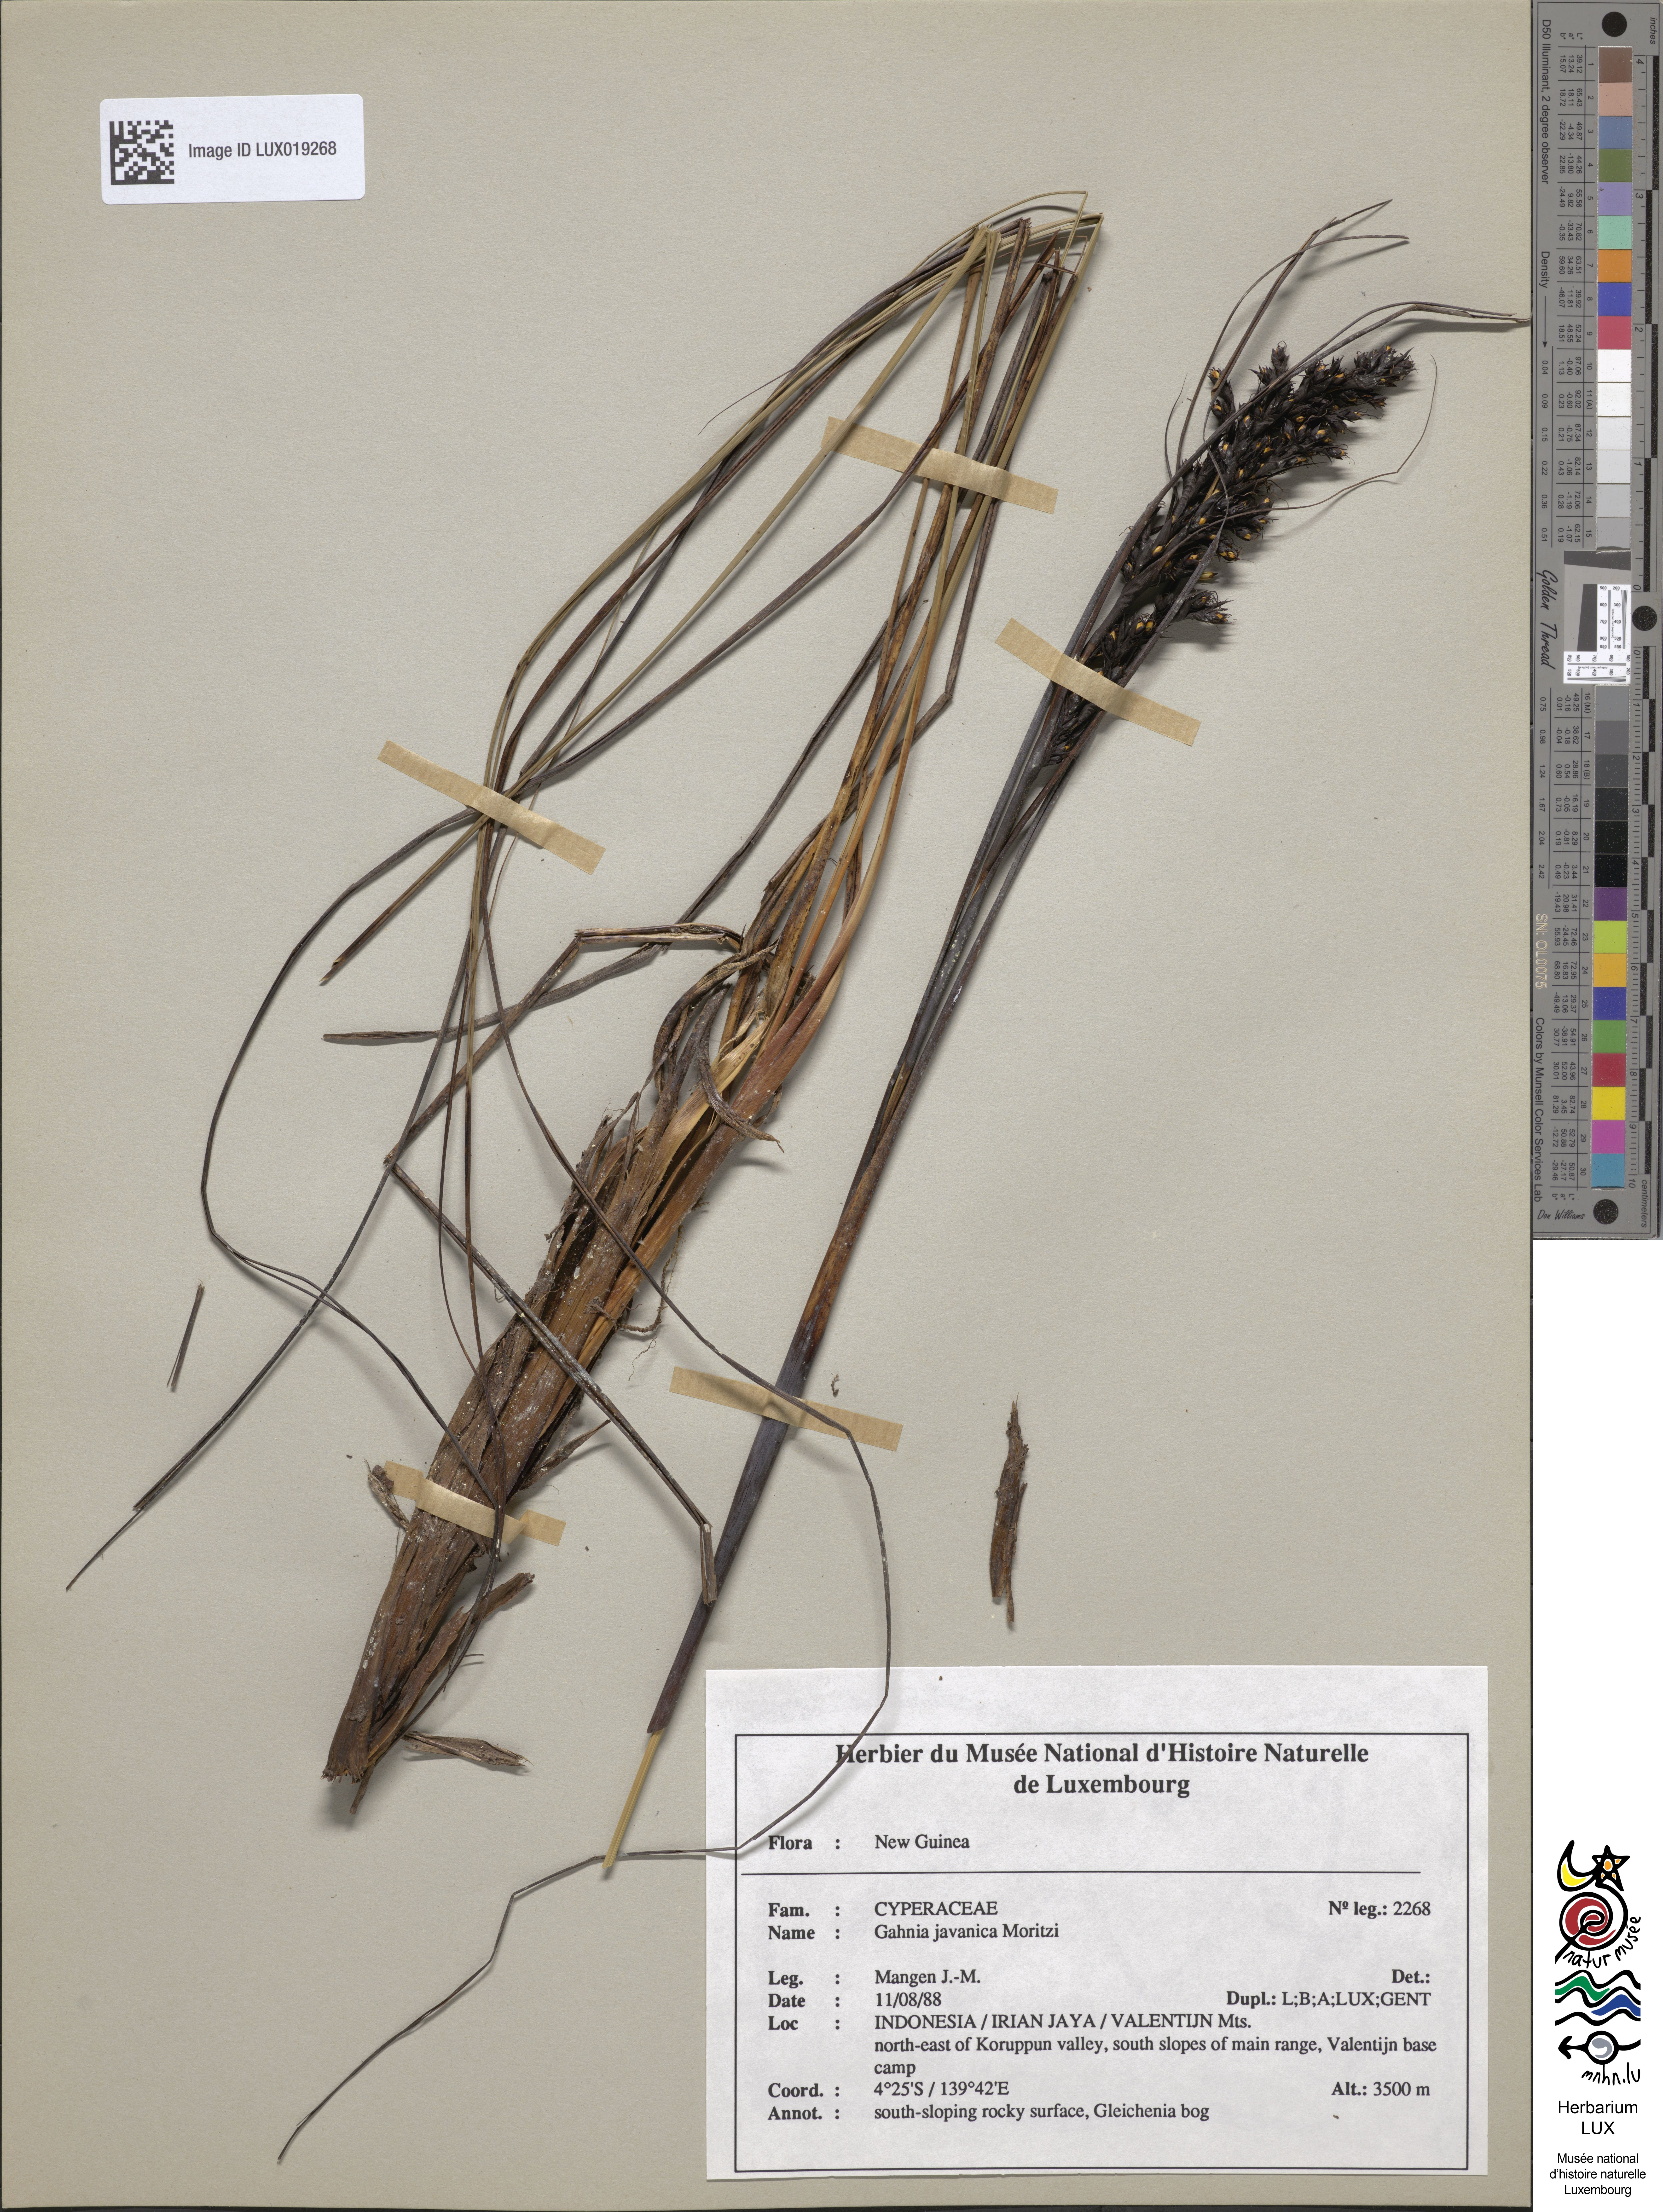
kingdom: Plantae
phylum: Tracheophyta
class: Liliopsida
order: Poales
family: Cyperaceae
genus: Gahnia
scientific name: Gahnia javanica
